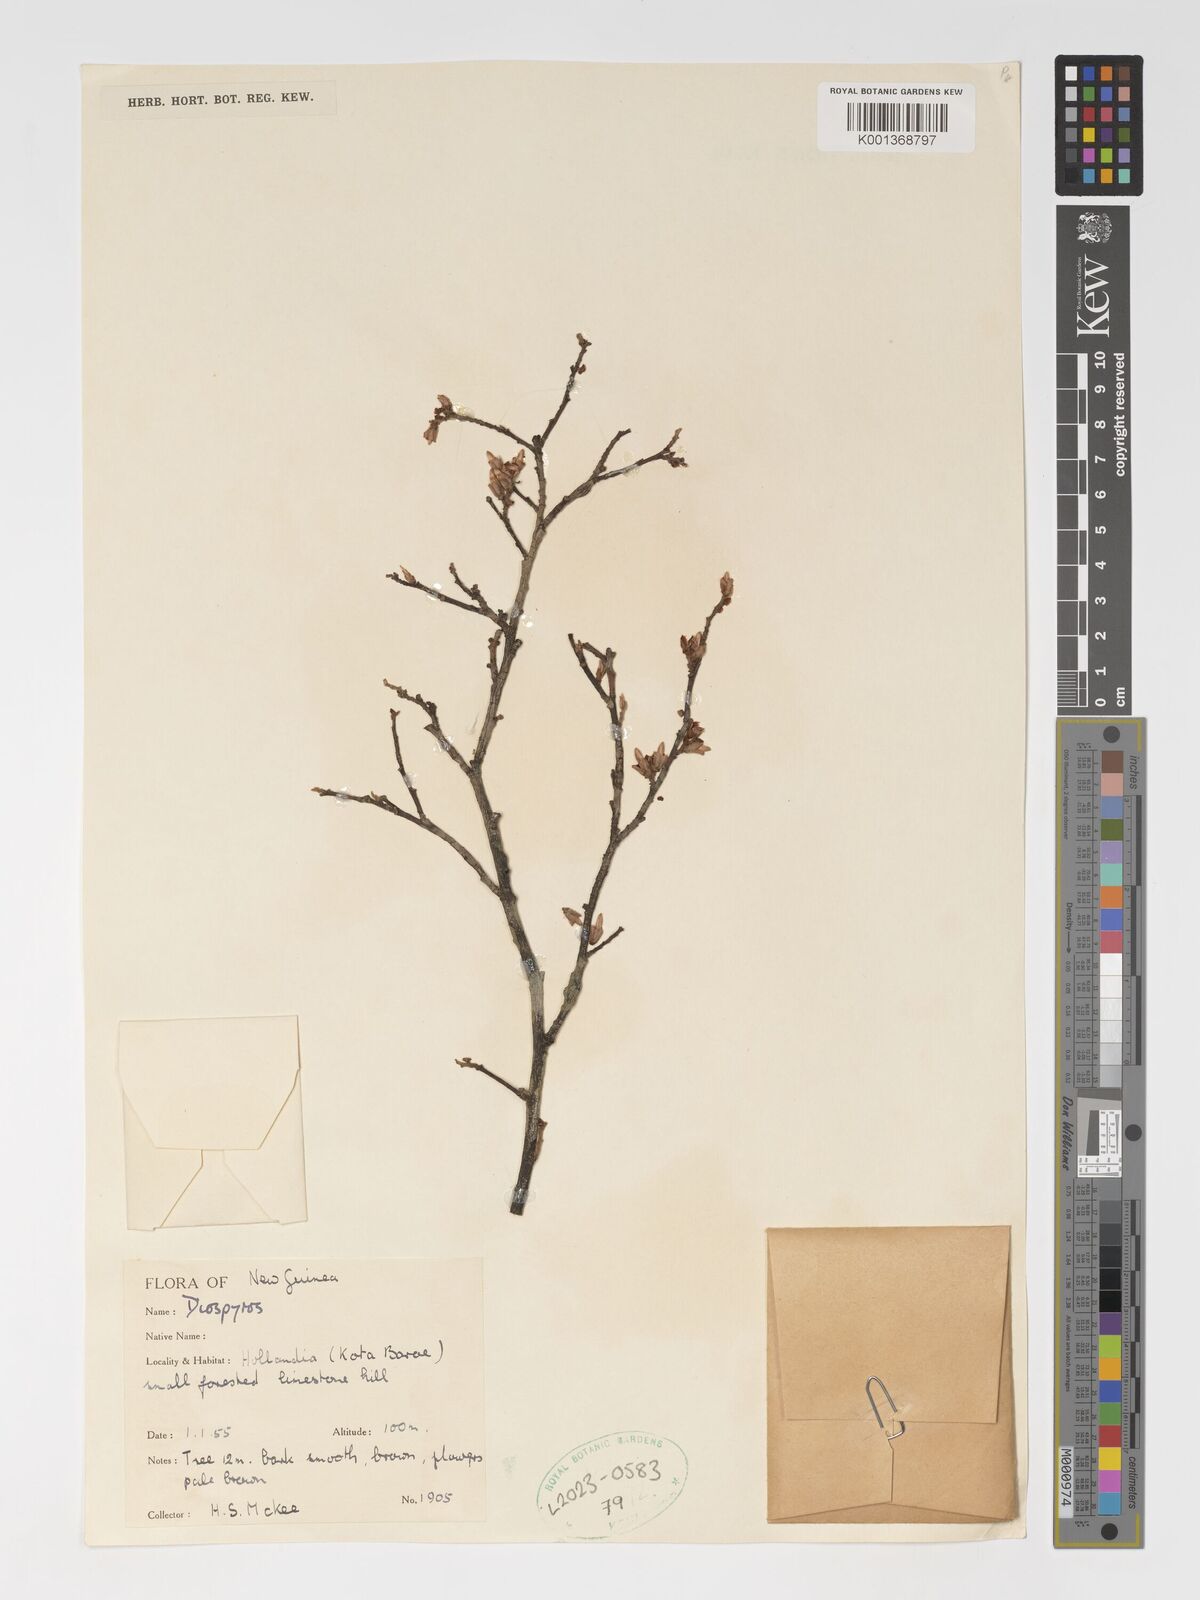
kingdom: Plantae
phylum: Tracheophyta
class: Magnoliopsida
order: Ericales
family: Ebenaceae
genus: Diospyros
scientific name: Diospyros
